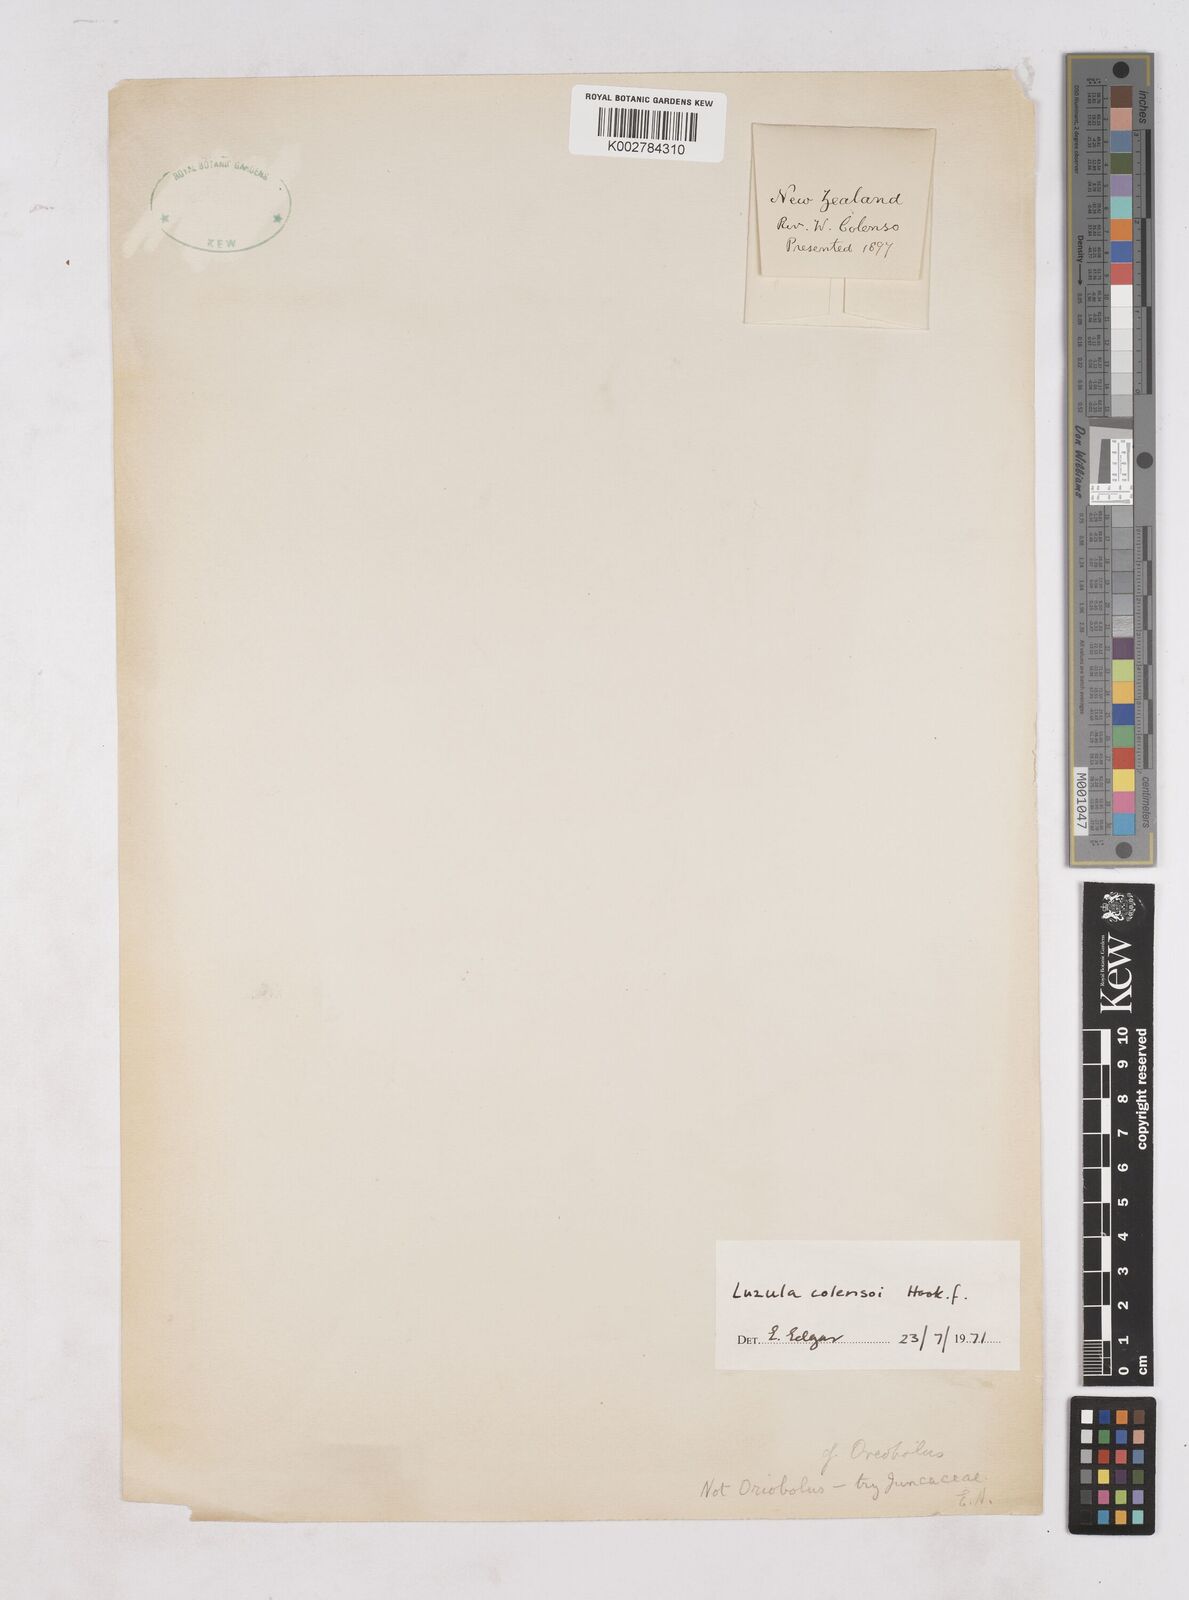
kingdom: Plantae
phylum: Tracheophyta
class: Liliopsida
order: Poales
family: Juncaceae
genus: Luzula
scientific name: Luzula colensoi
